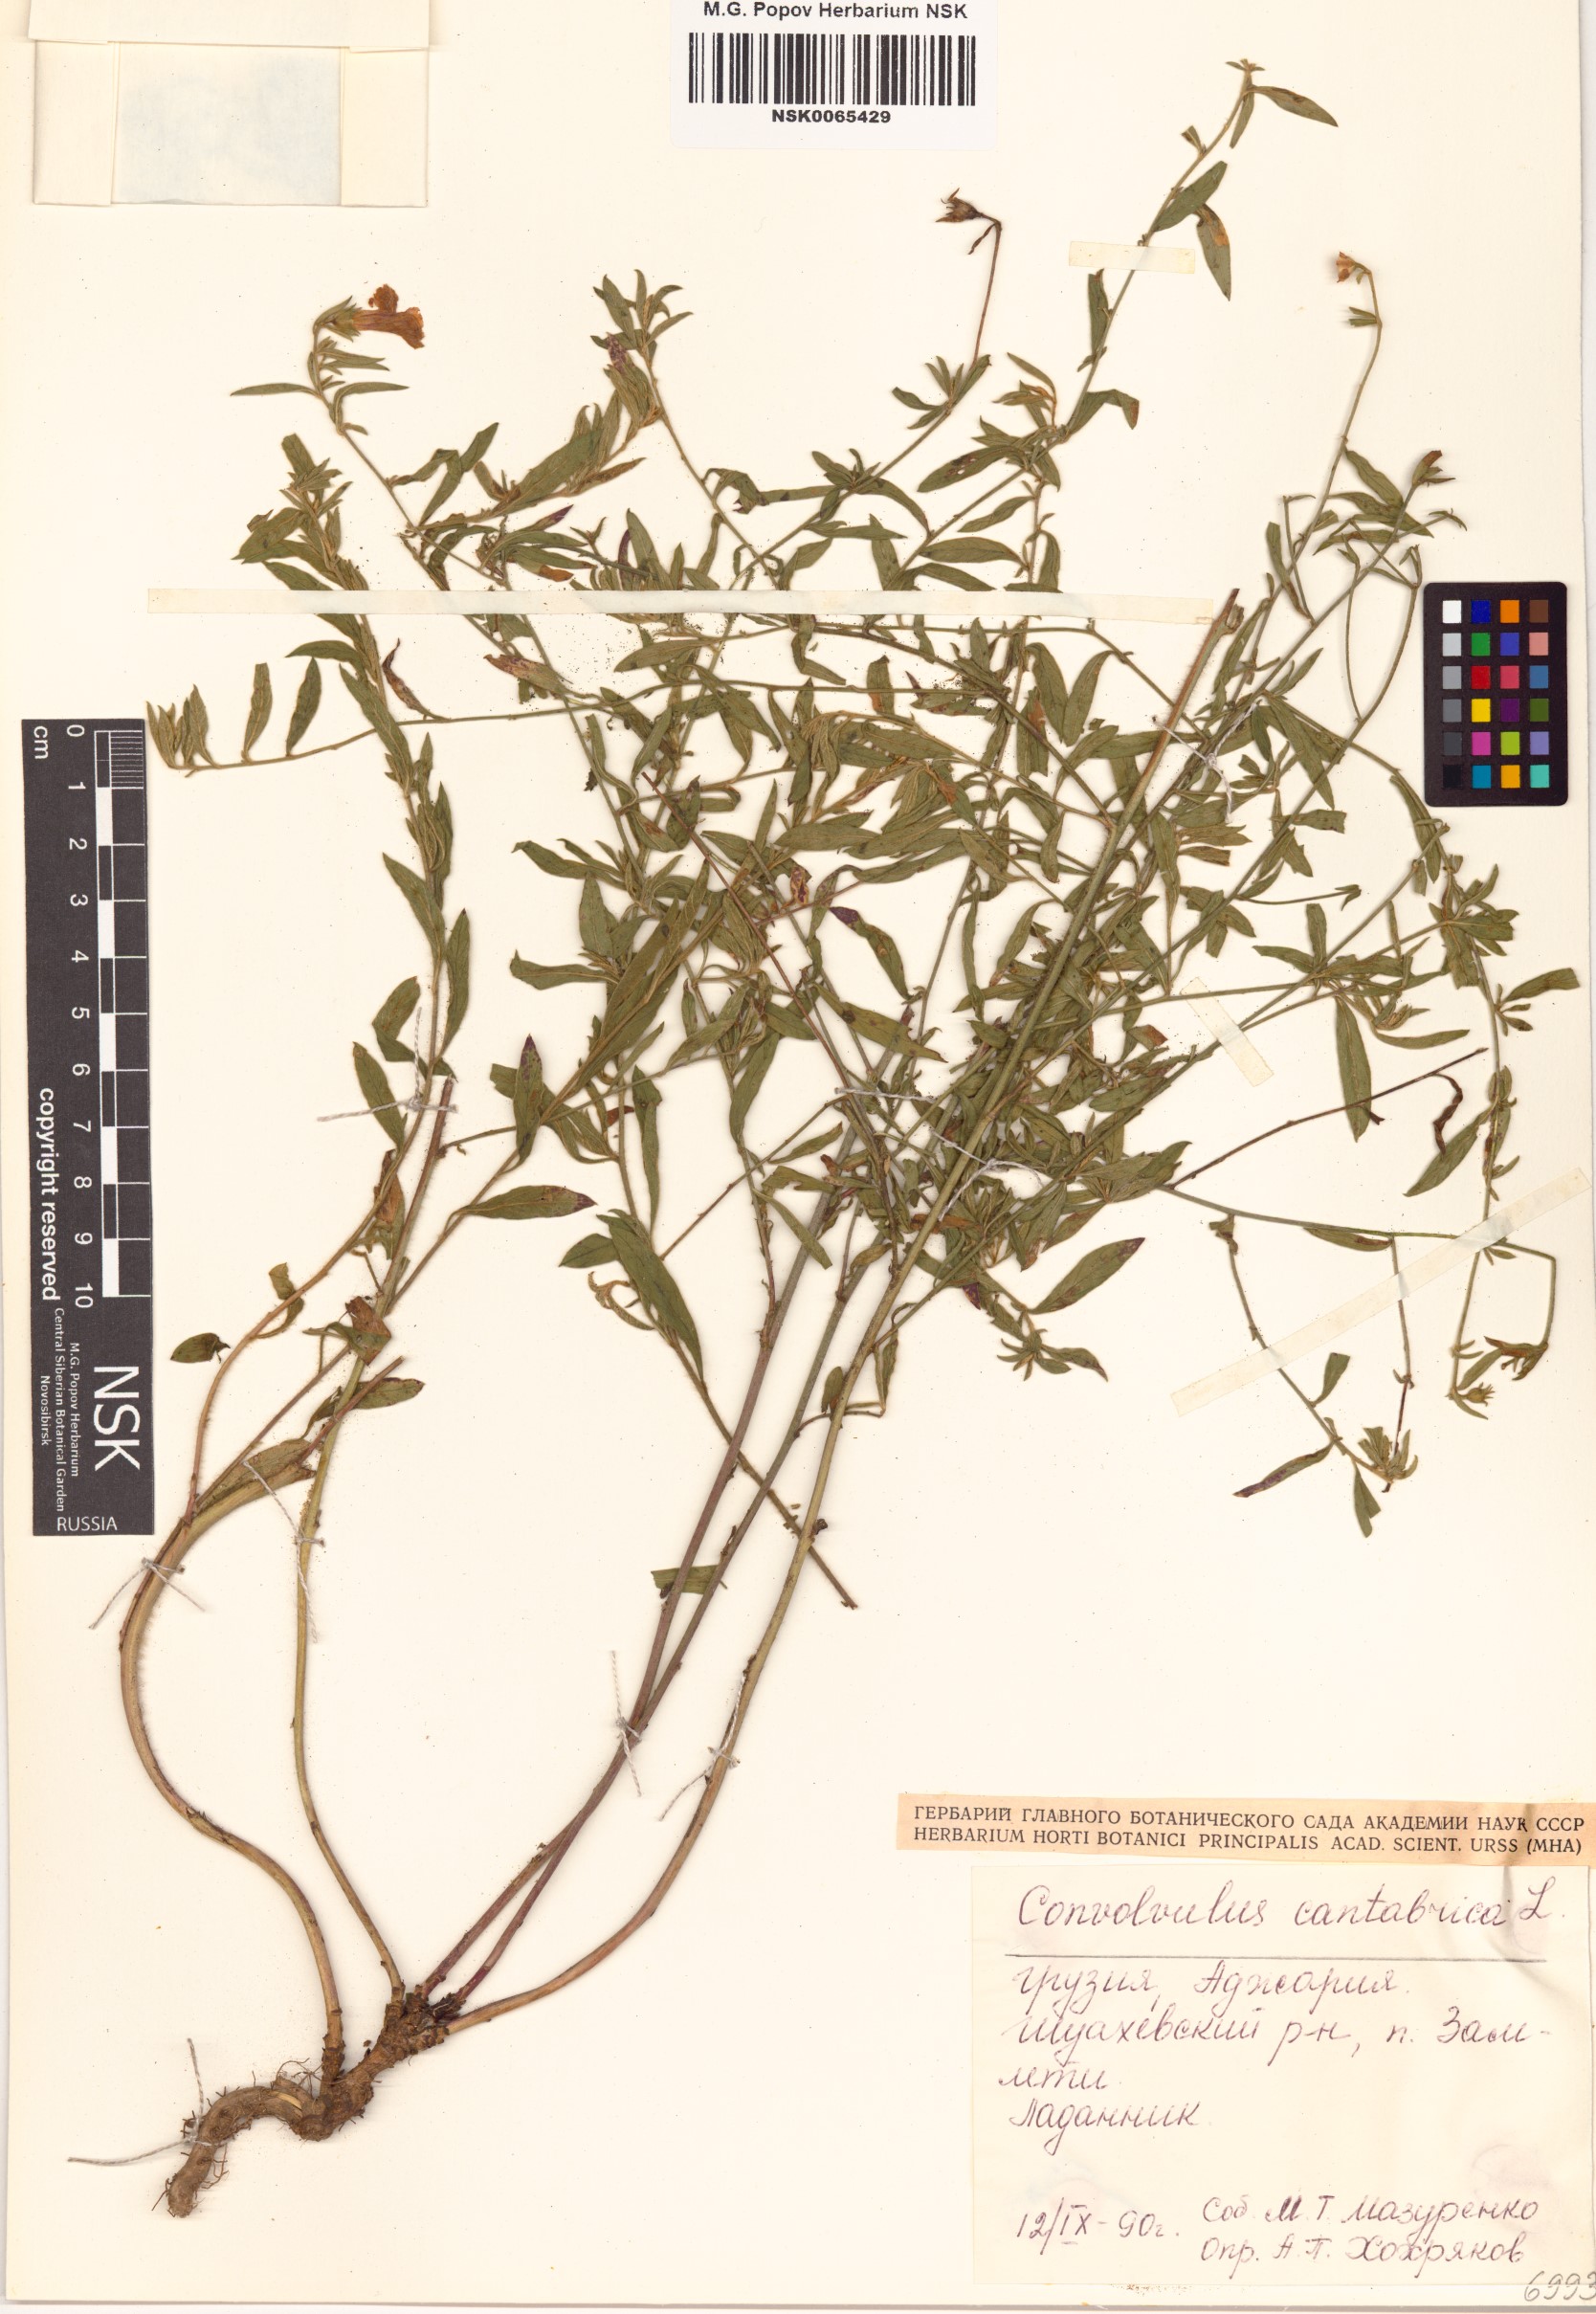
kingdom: Plantae
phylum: Tracheophyta
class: Magnoliopsida
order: Solanales
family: Convolvulaceae
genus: Convolvulus
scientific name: Convolvulus cantabrica
